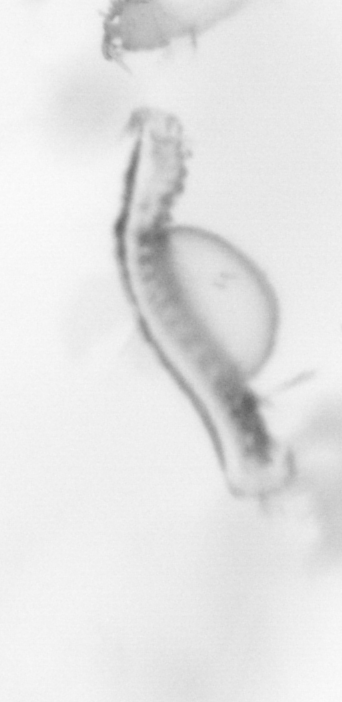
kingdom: Animalia
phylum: Annelida
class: Polychaeta
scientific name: Polychaeta
